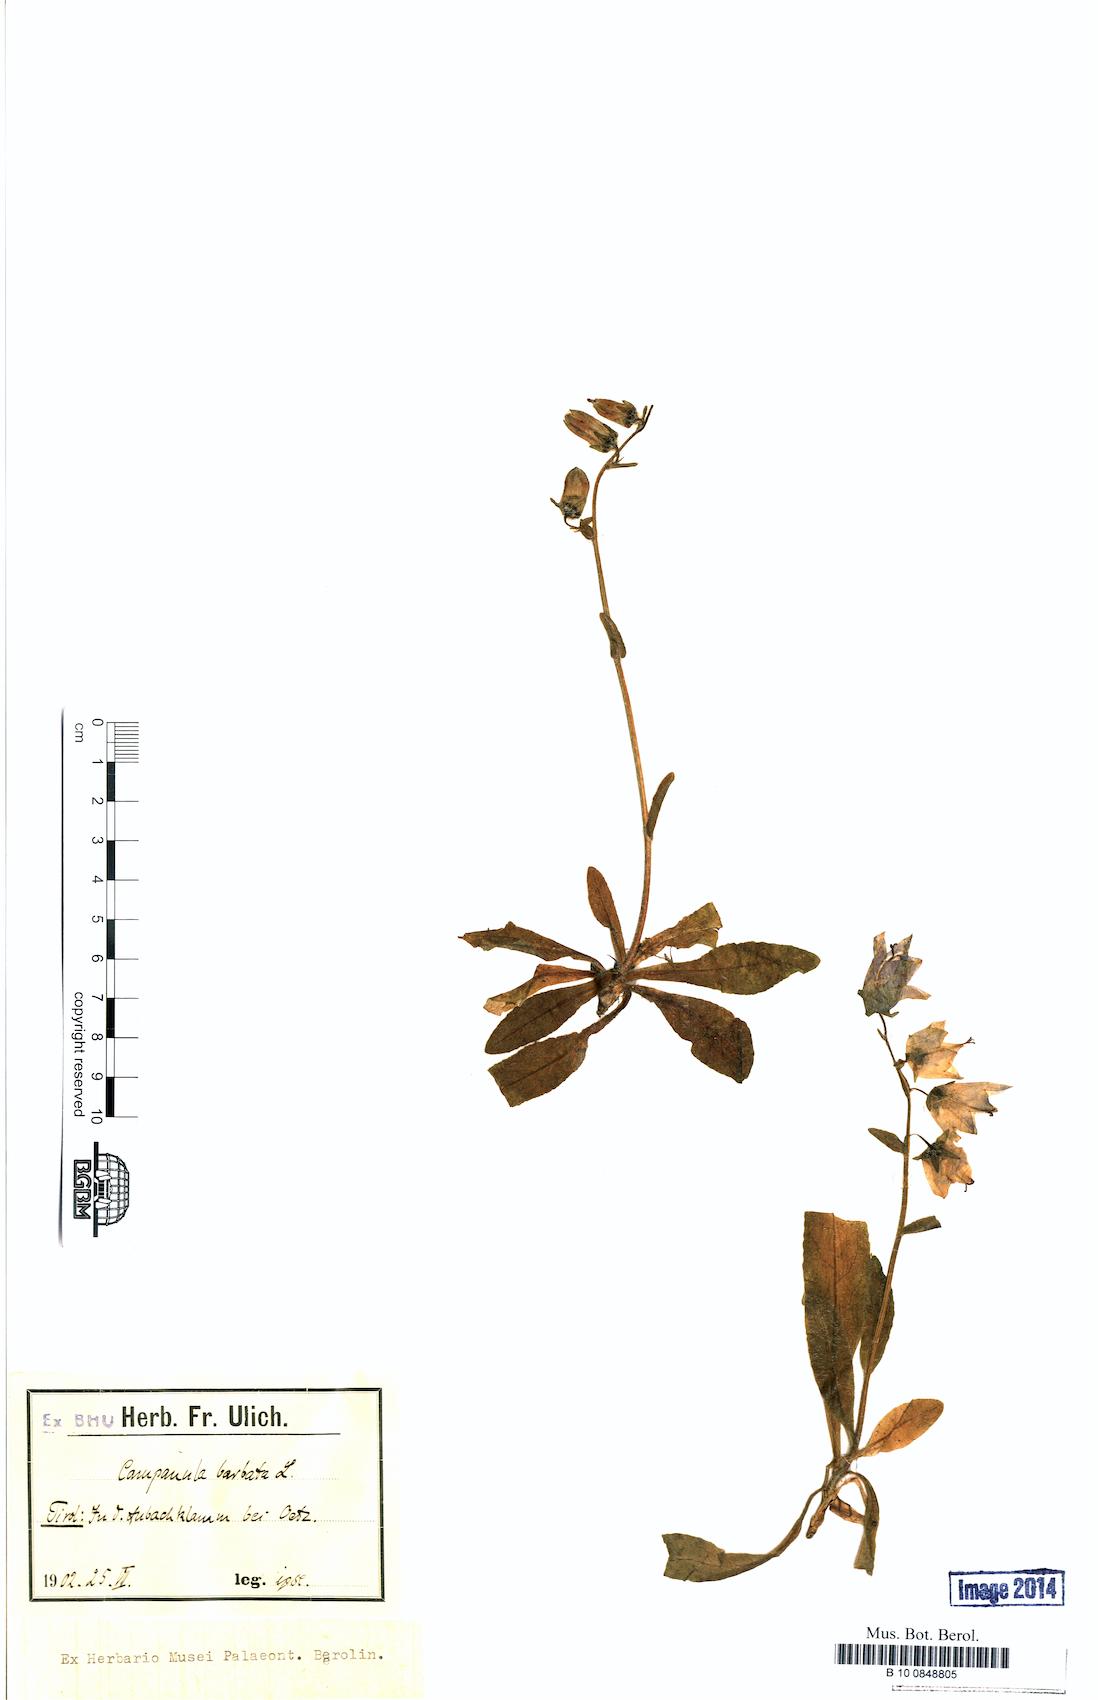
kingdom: Plantae
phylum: Tracheophyta
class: Magnoliopsida
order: Asterales
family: Campanulaceae
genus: Campanula
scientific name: Campanula barbata
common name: Bearded bellflower
